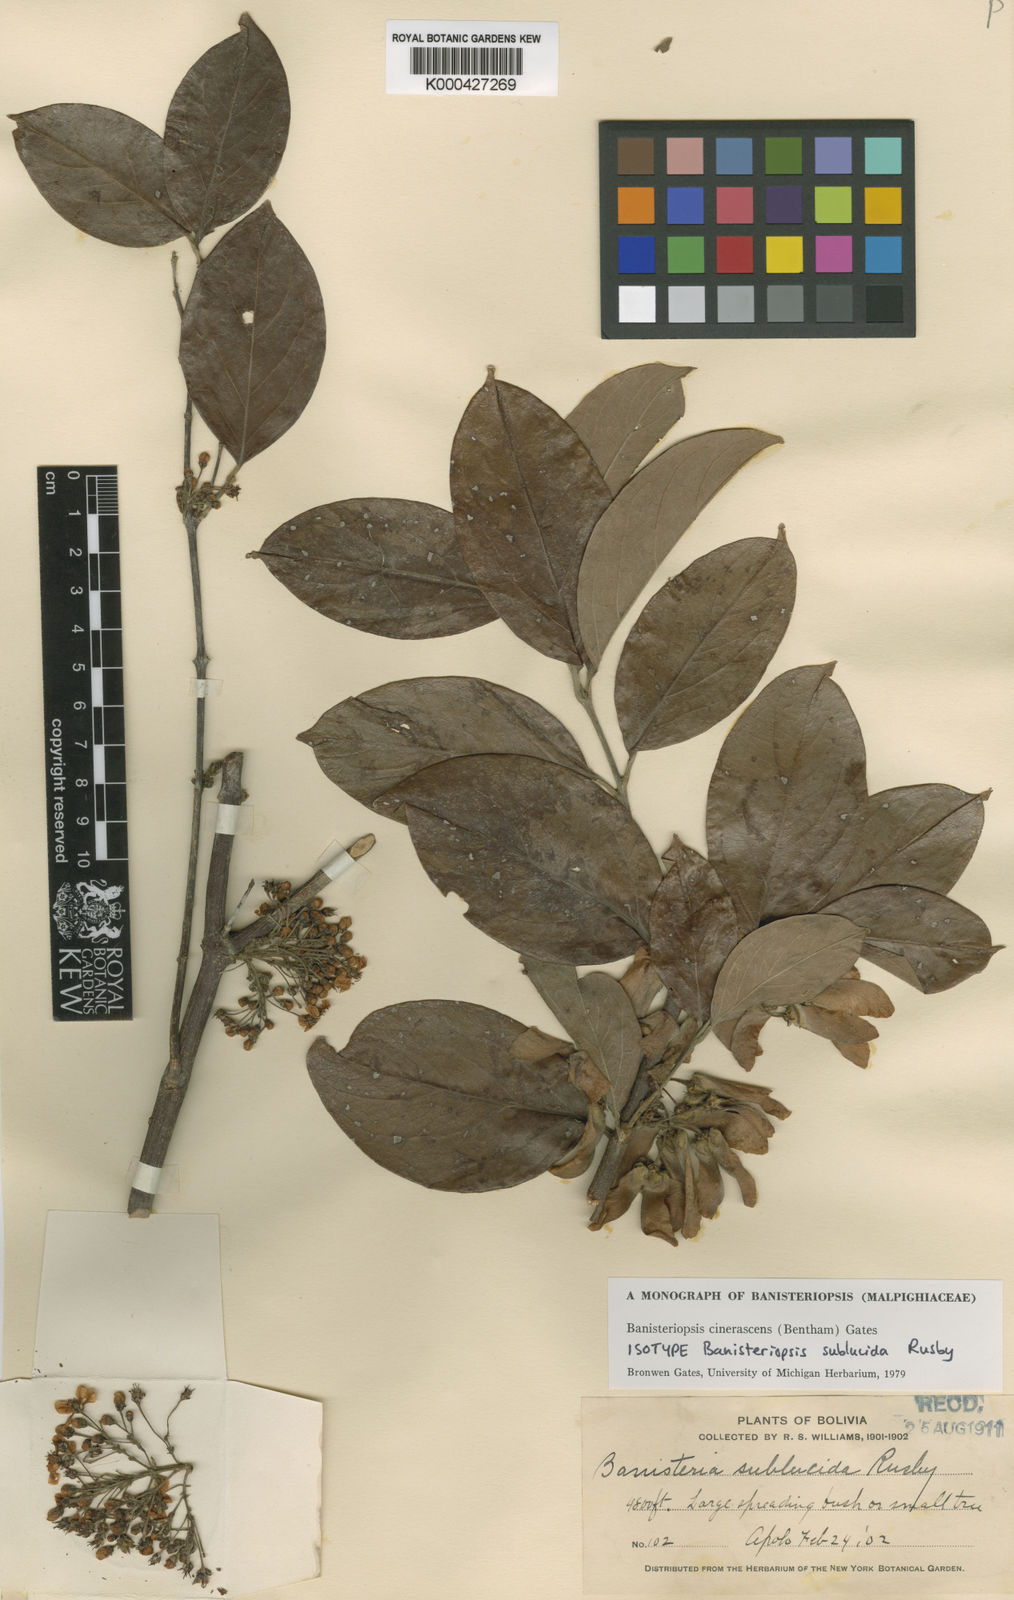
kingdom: Plantae
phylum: Tracheophyta
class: Magnoliopsida
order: Malpighiales
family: Malpighiaceae
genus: Bronwenia
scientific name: Bronwenia cinerascens
